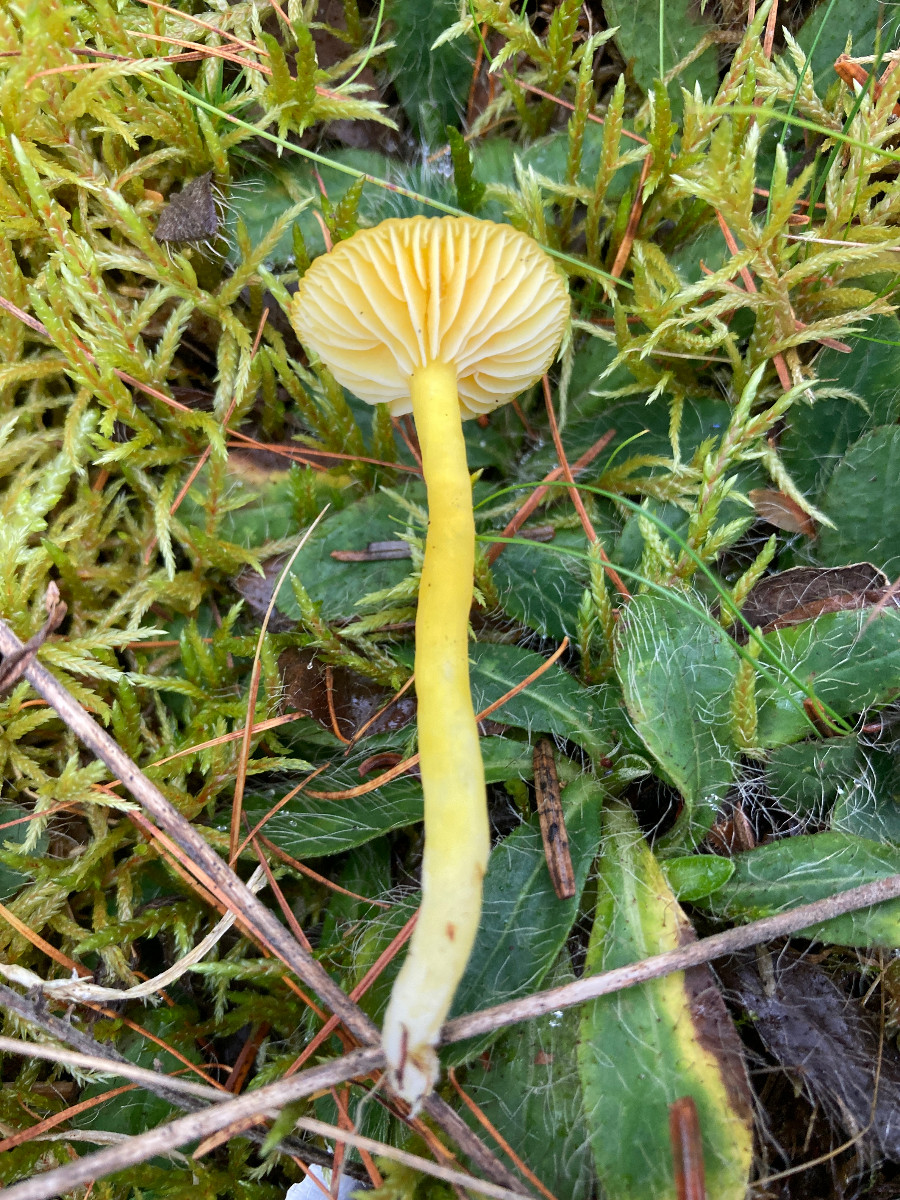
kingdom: Fungi
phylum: Basidiomycota
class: Agaricomycetes
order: Agaricales
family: Hygrophoraceae
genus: Hygrocybe
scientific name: Hygrocybe ceracea
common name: voksgul vokshat
